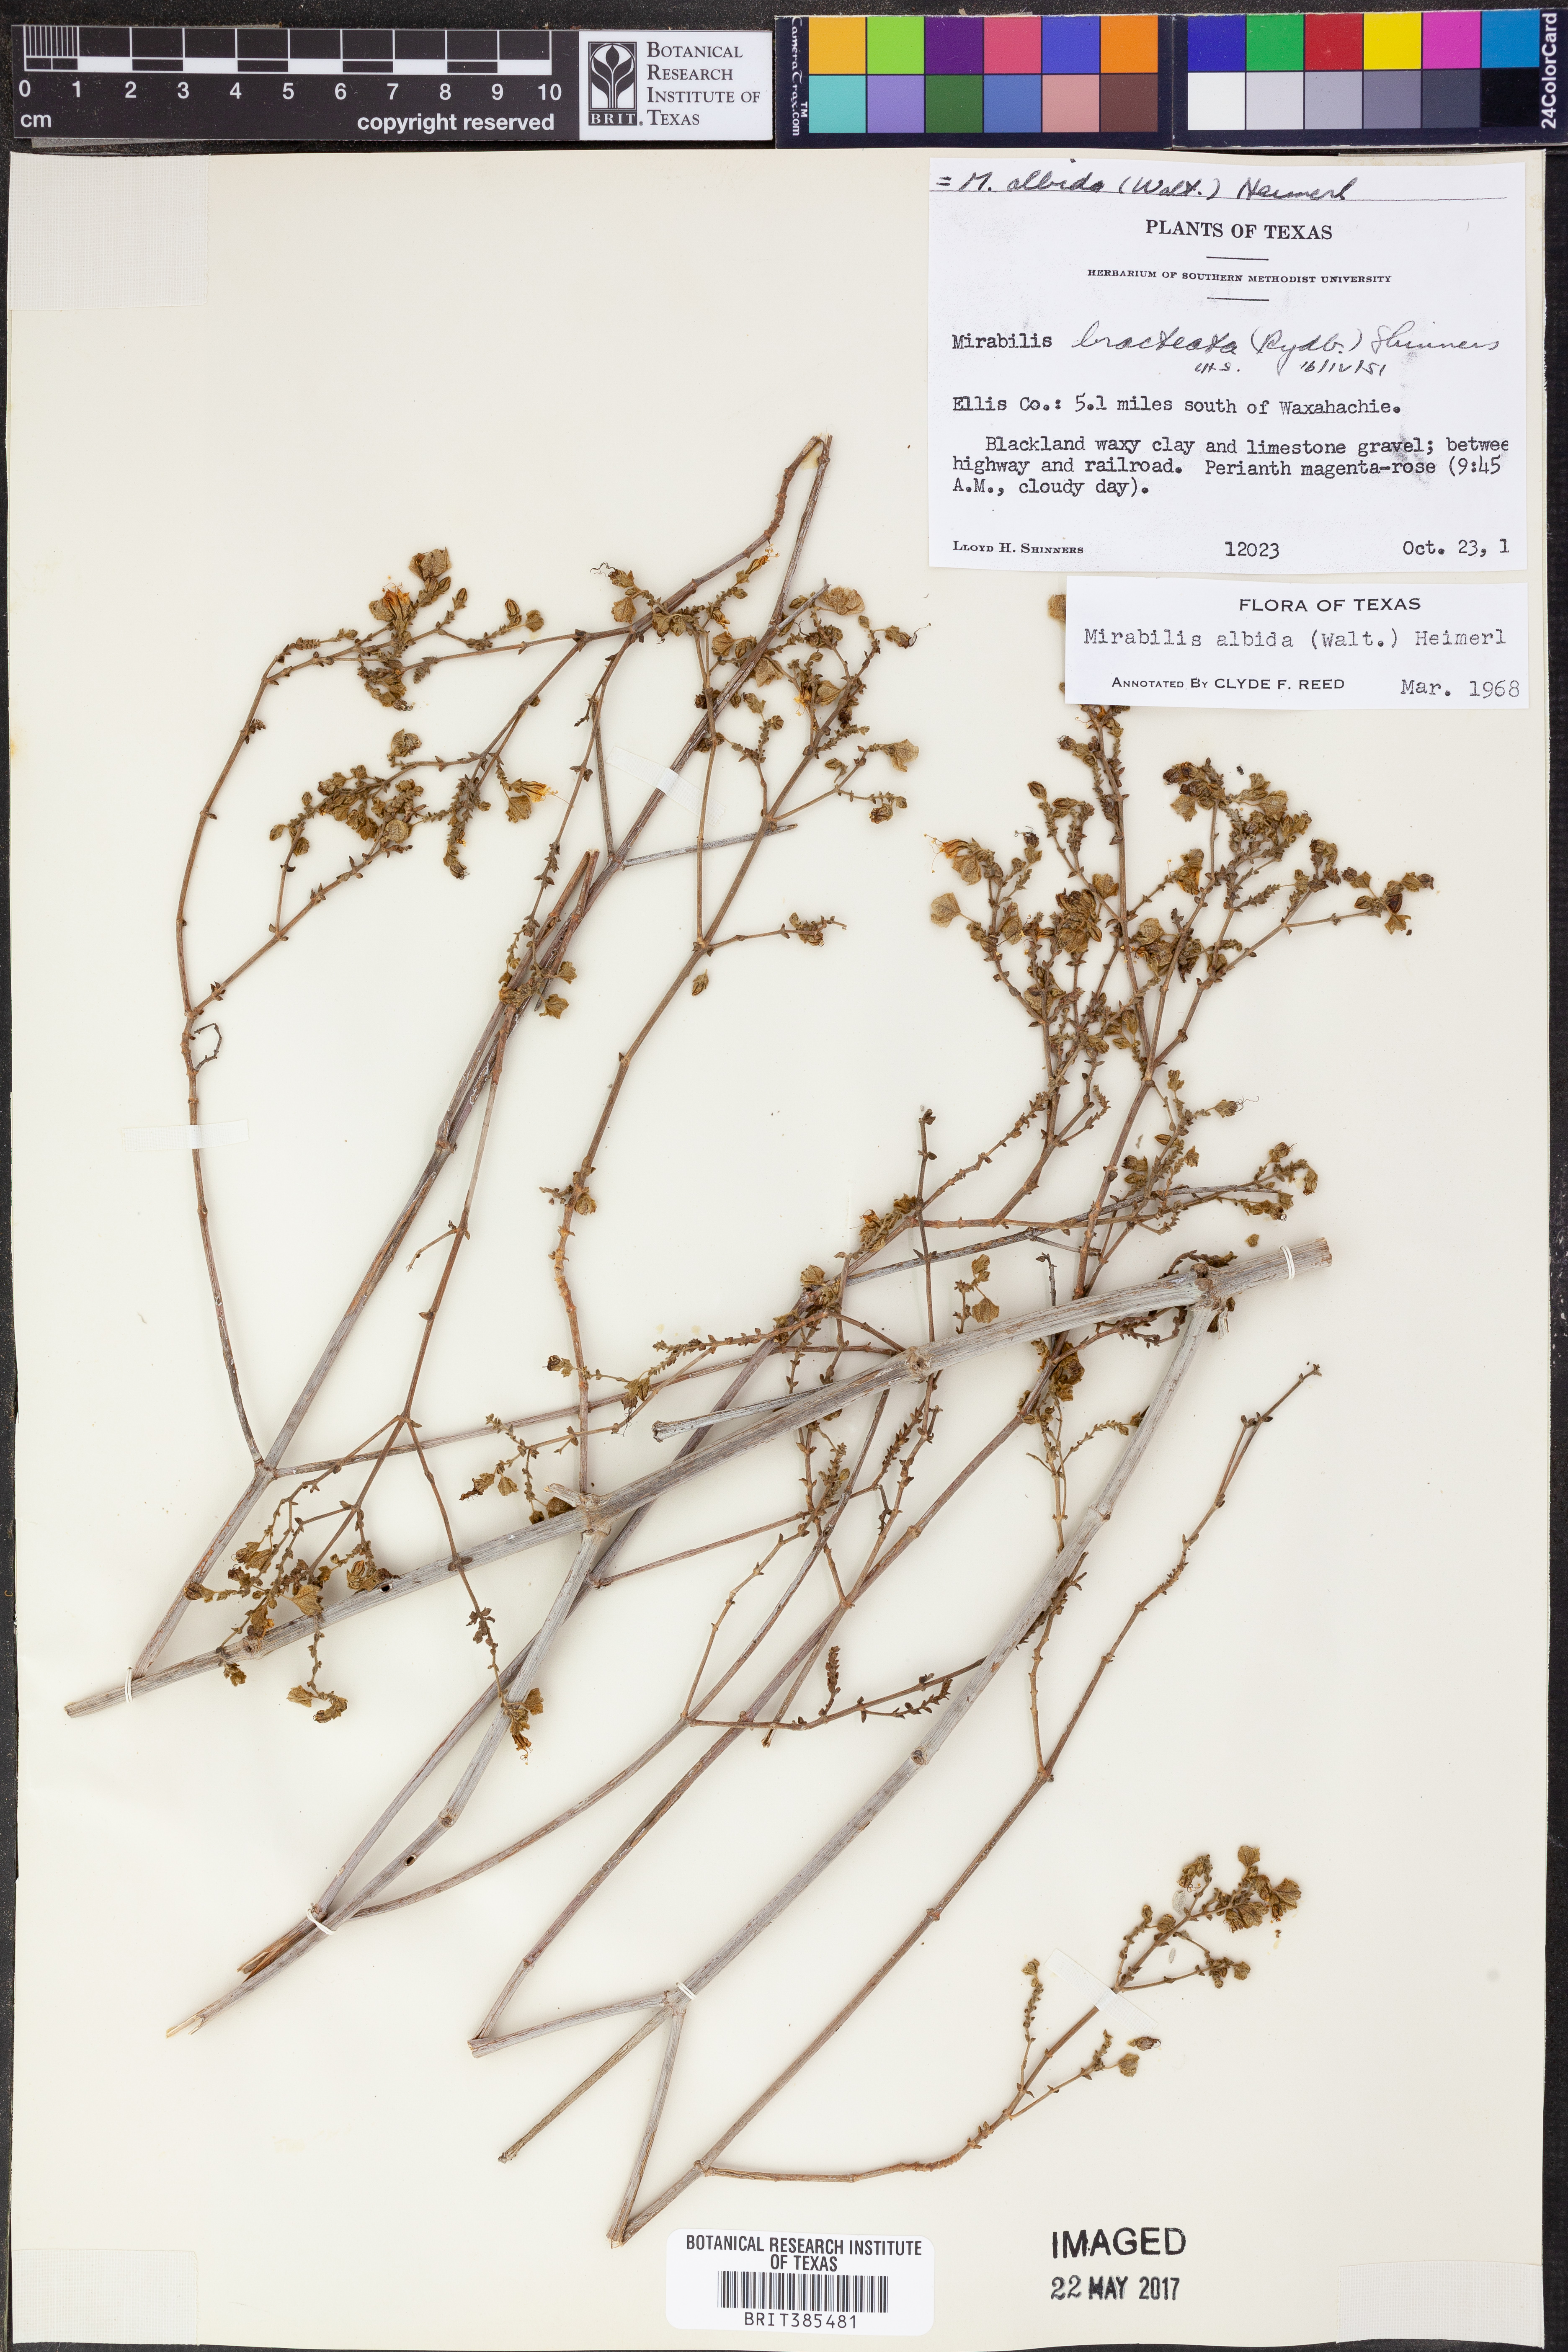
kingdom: Plantae
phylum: Tracheophyta
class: Magnoliopsida
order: Caryophyllales
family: Nyctaginaceae
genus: Mirabilis
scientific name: Mirabilis albida
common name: Hairy four-o'clock
